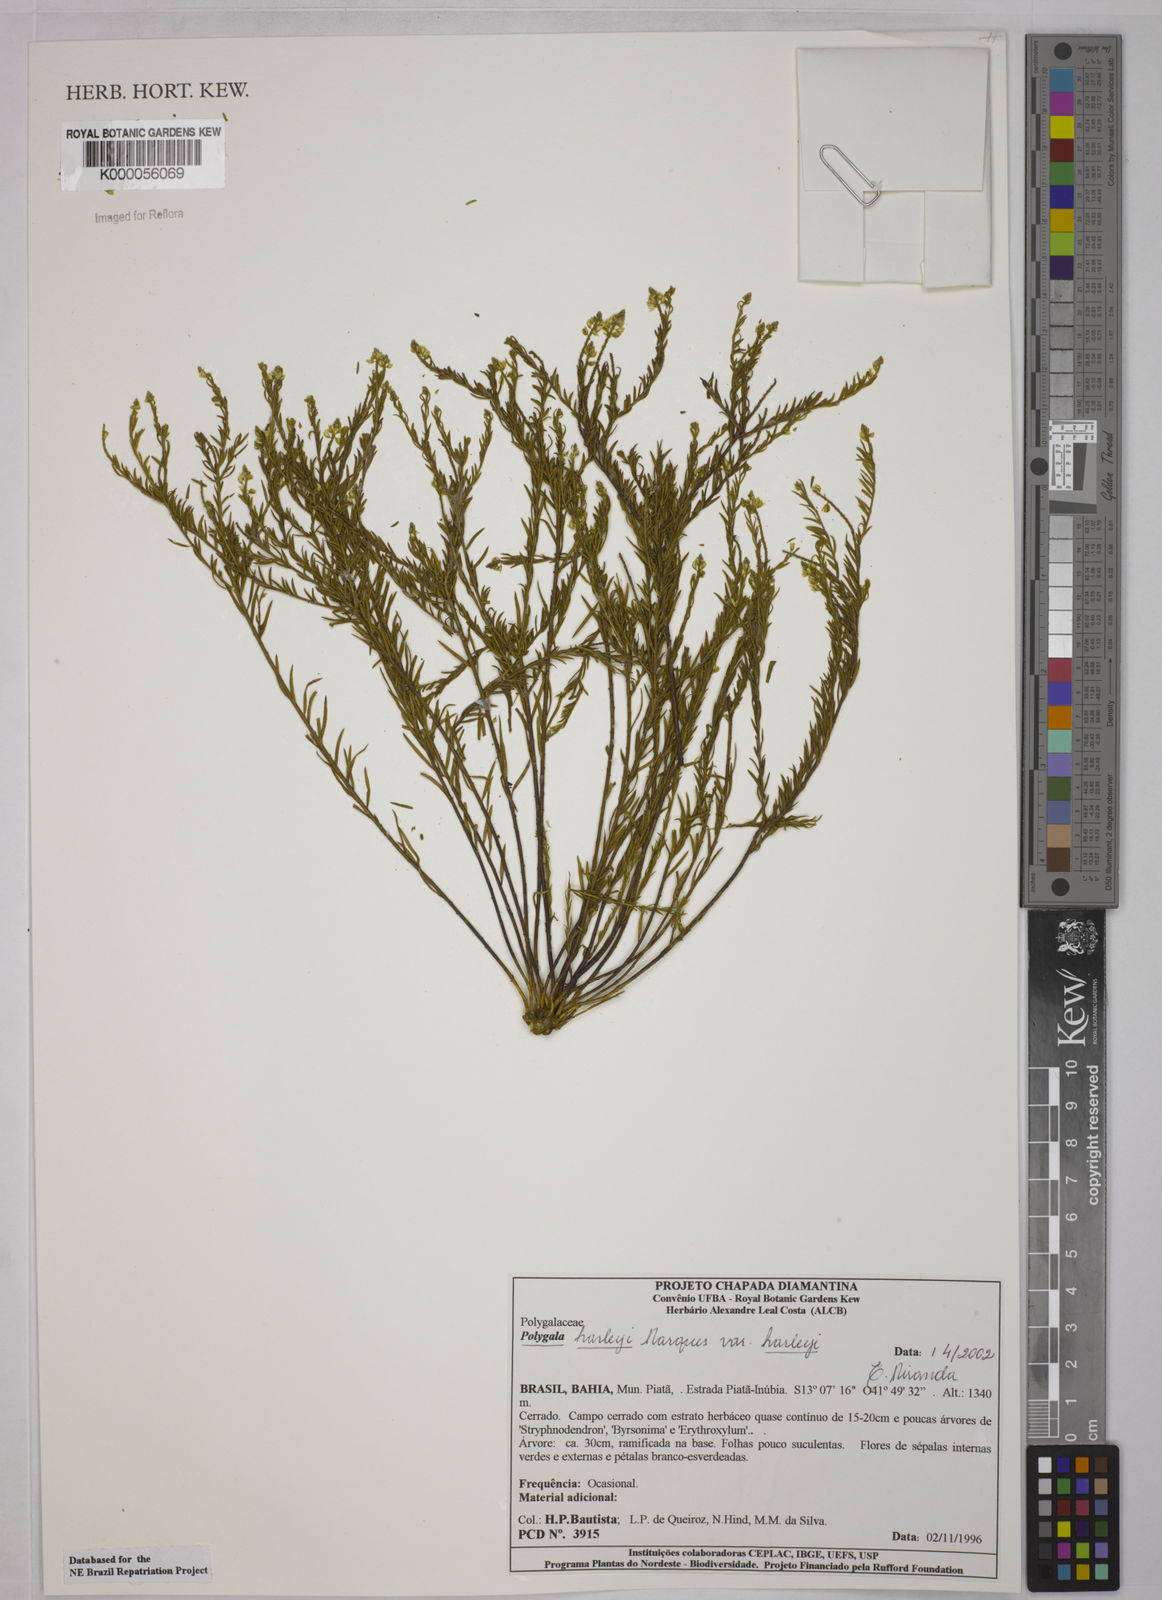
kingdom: Plantae
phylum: Tracheophyta
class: Magnoliopsida
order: Fabales
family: Polygalaceae
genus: Polygala
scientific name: Polygala
